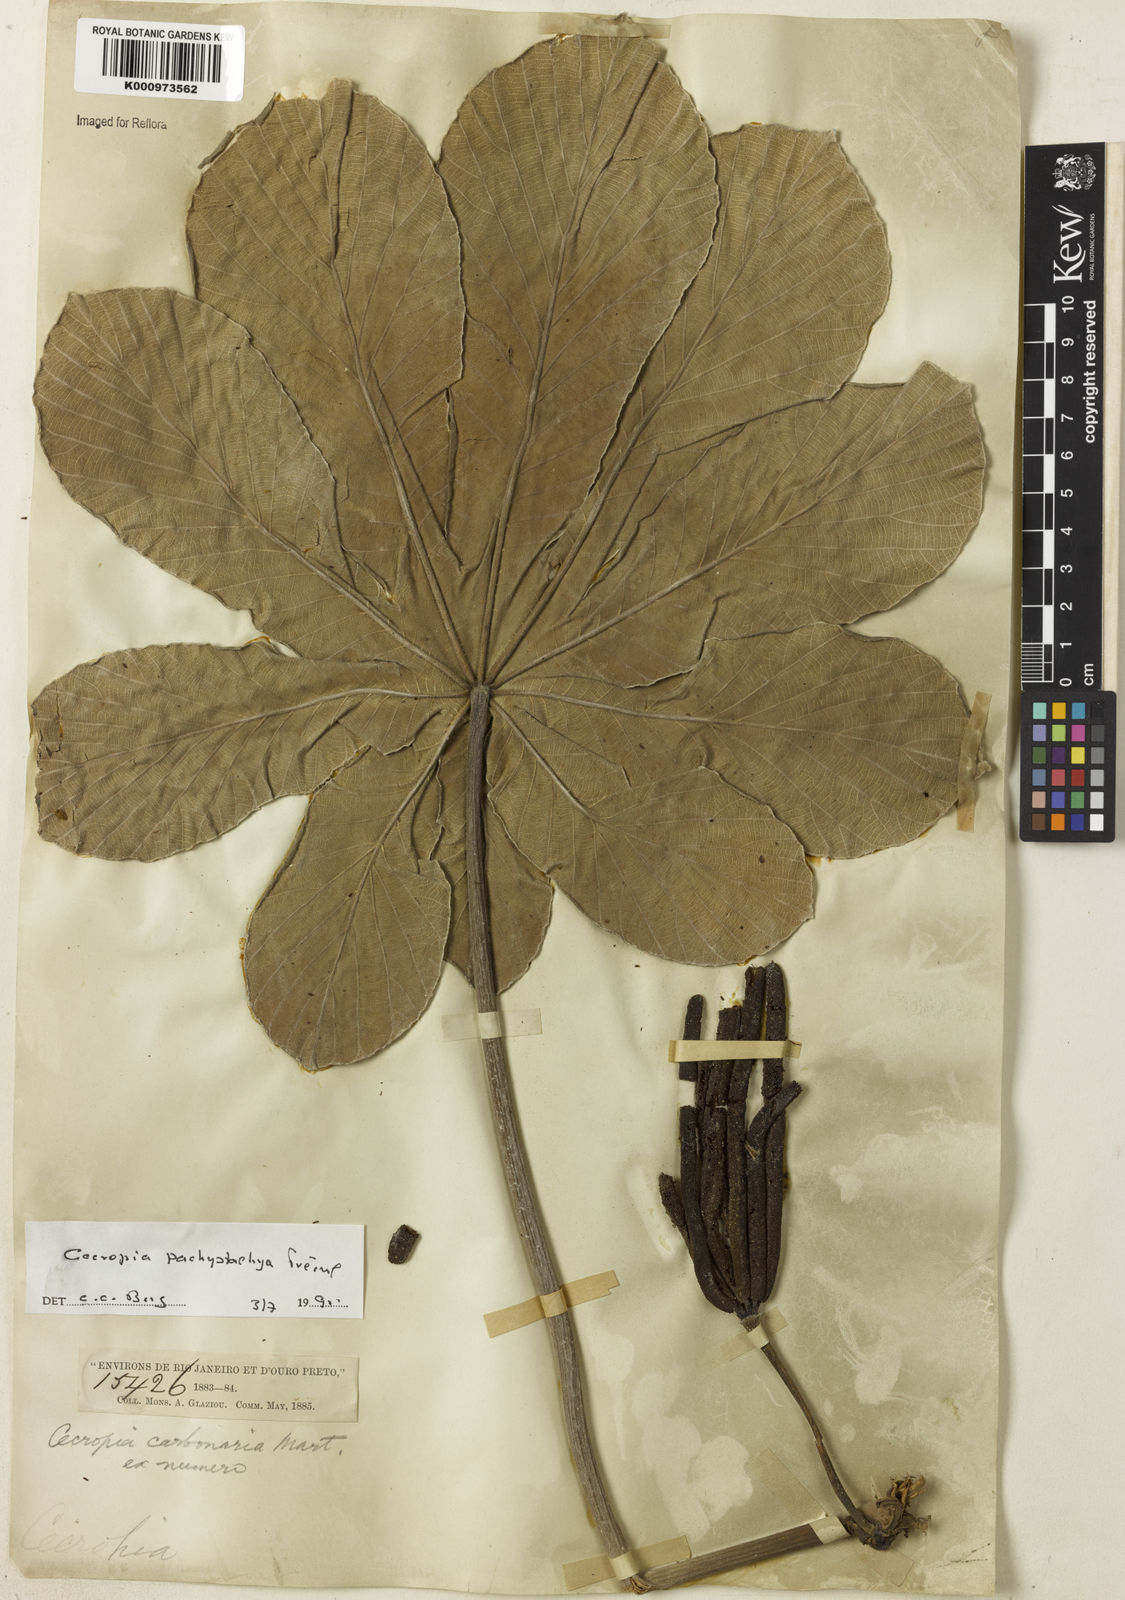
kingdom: Plantae
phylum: Tracheophyta
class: Magnoliopsida
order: Rosales
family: Urticaceae
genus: Cecropia
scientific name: Cecropia
